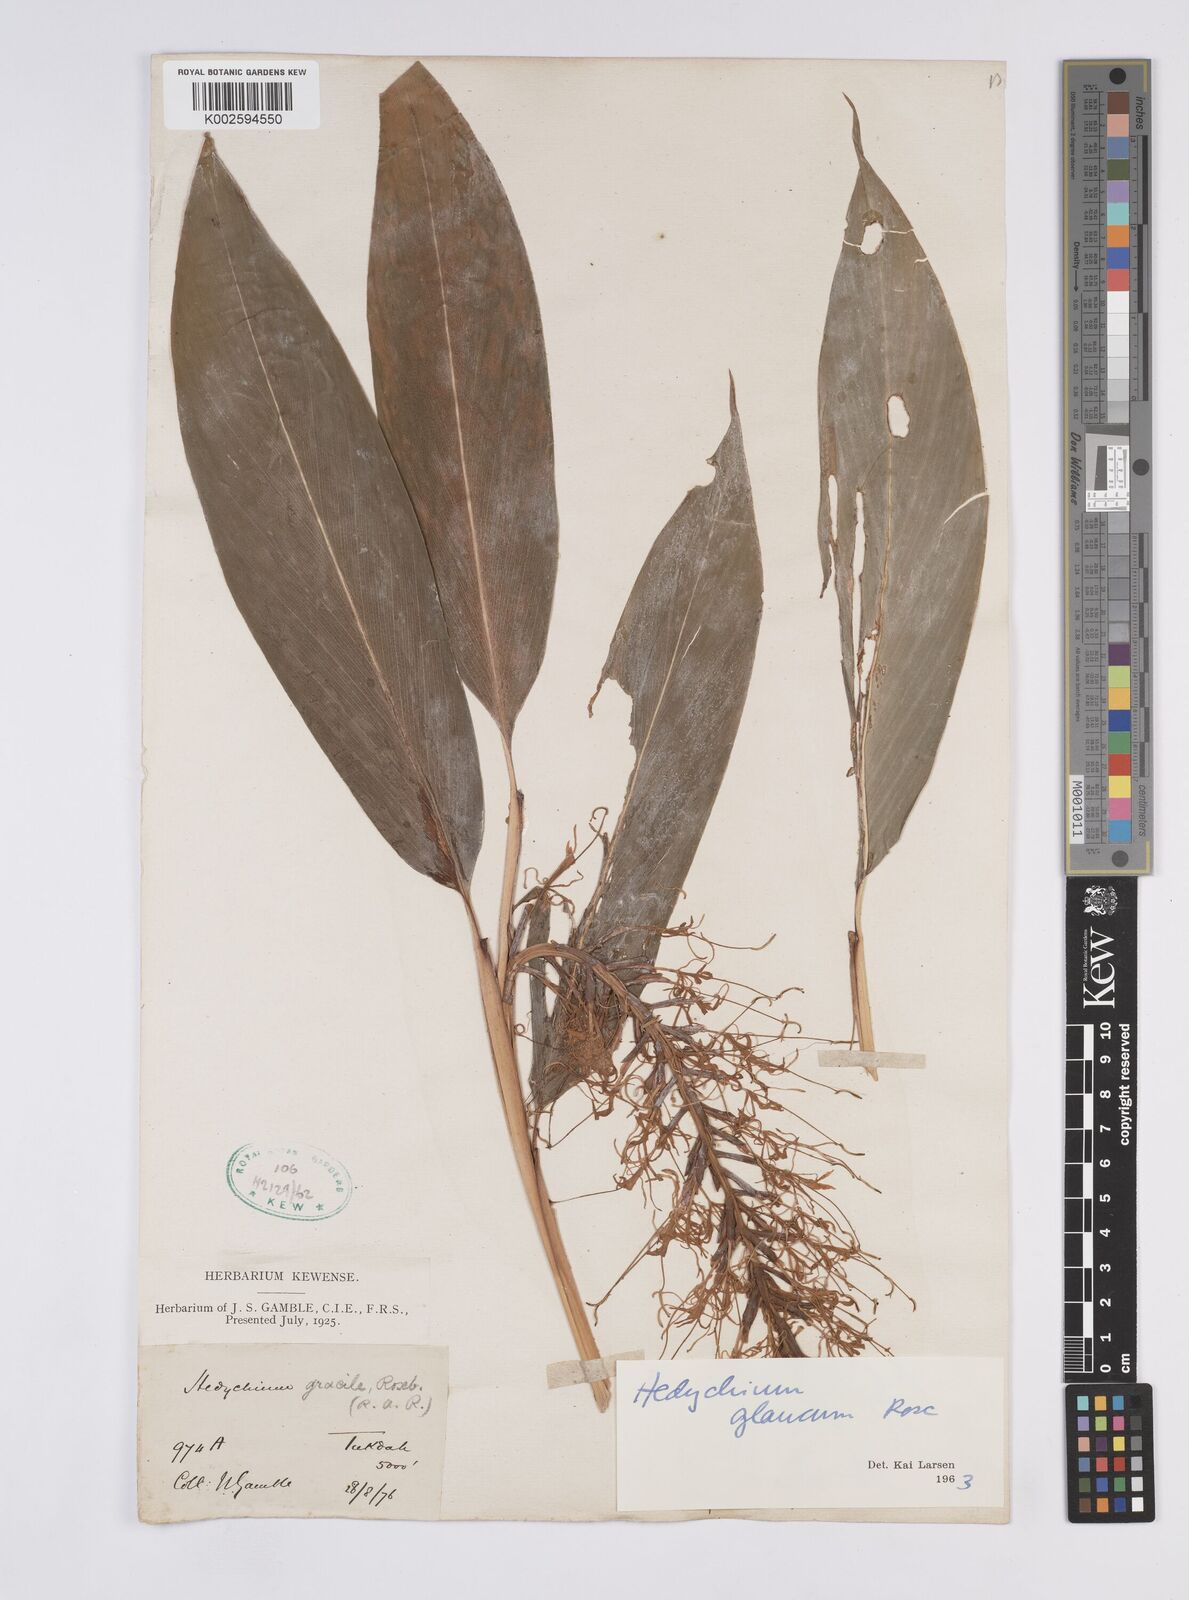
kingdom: Plantae
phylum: Tracheophyta
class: Liliopsida
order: Zingiberales
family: Zingiberaceae
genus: Hedychium
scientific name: Hedychium glaucum
